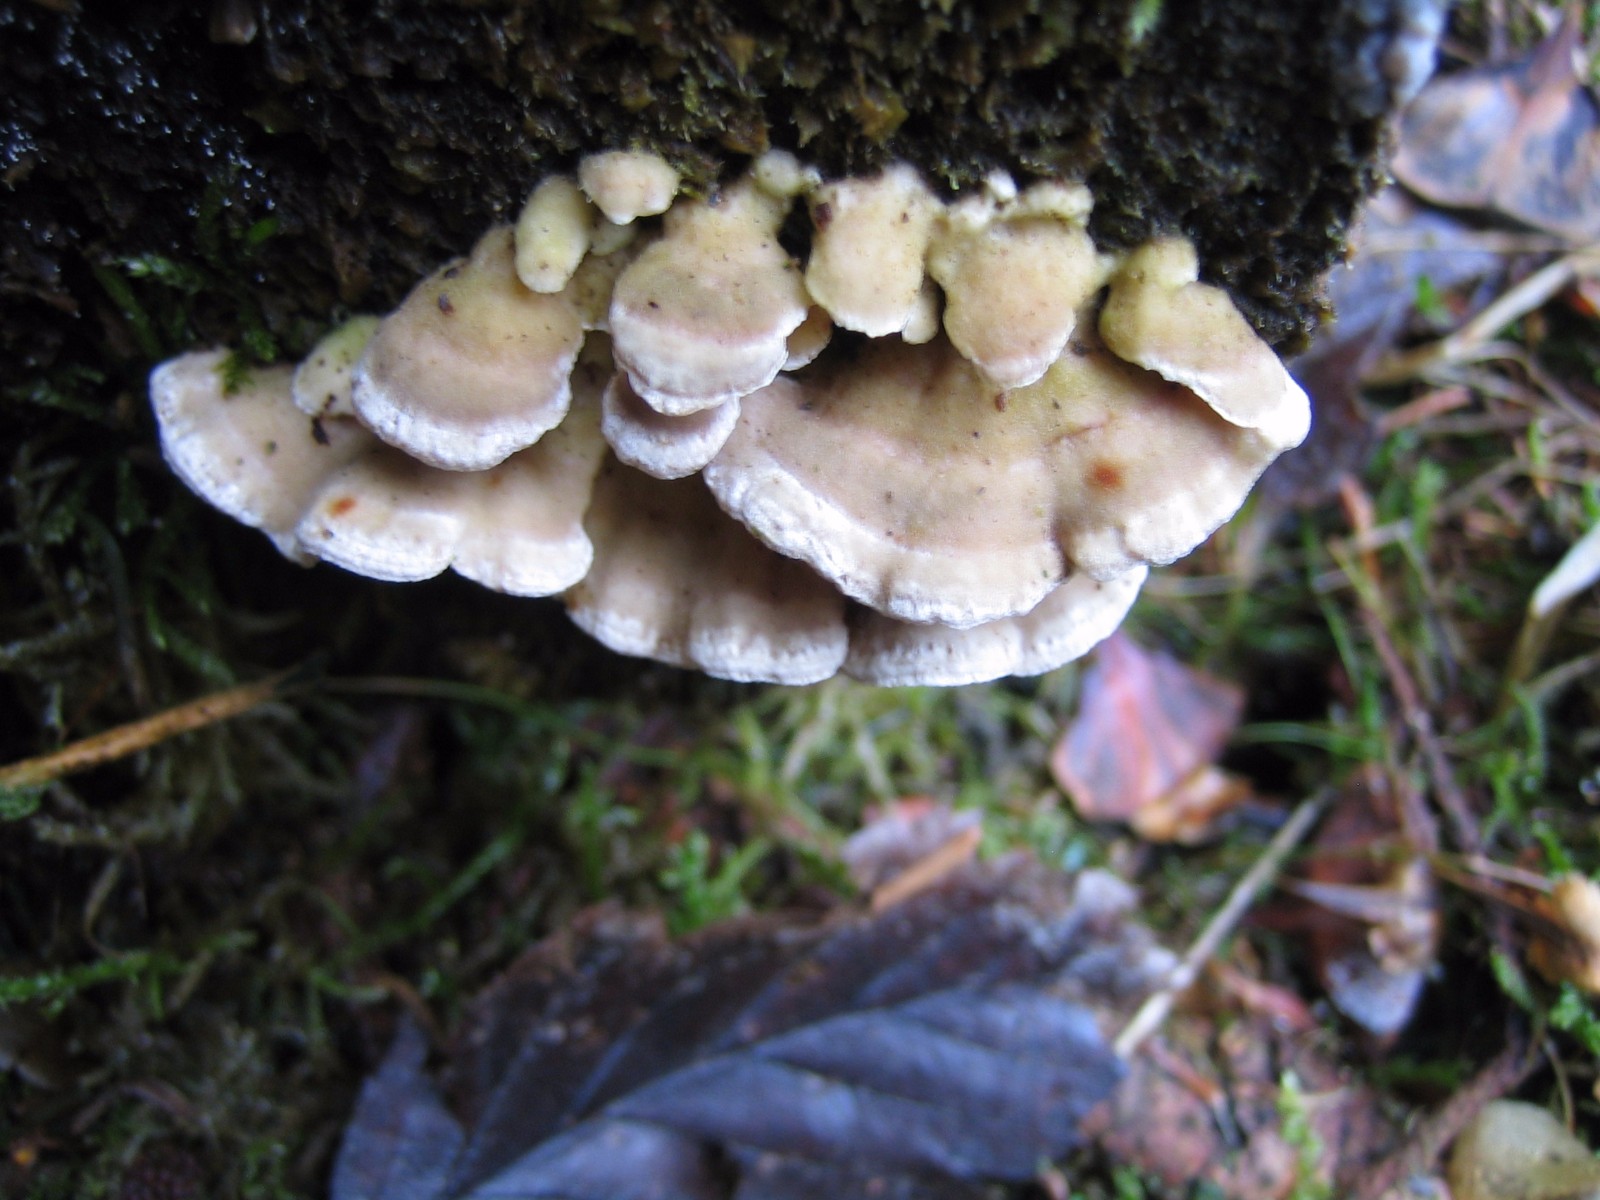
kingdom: Fungi
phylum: Basidiomycota
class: Agaricomycetes
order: Polyporales
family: Incrustoporiaceae
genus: Skeletocutis
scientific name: Skeletocutis carneogrisea
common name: rødgrå krystalporesvamp
